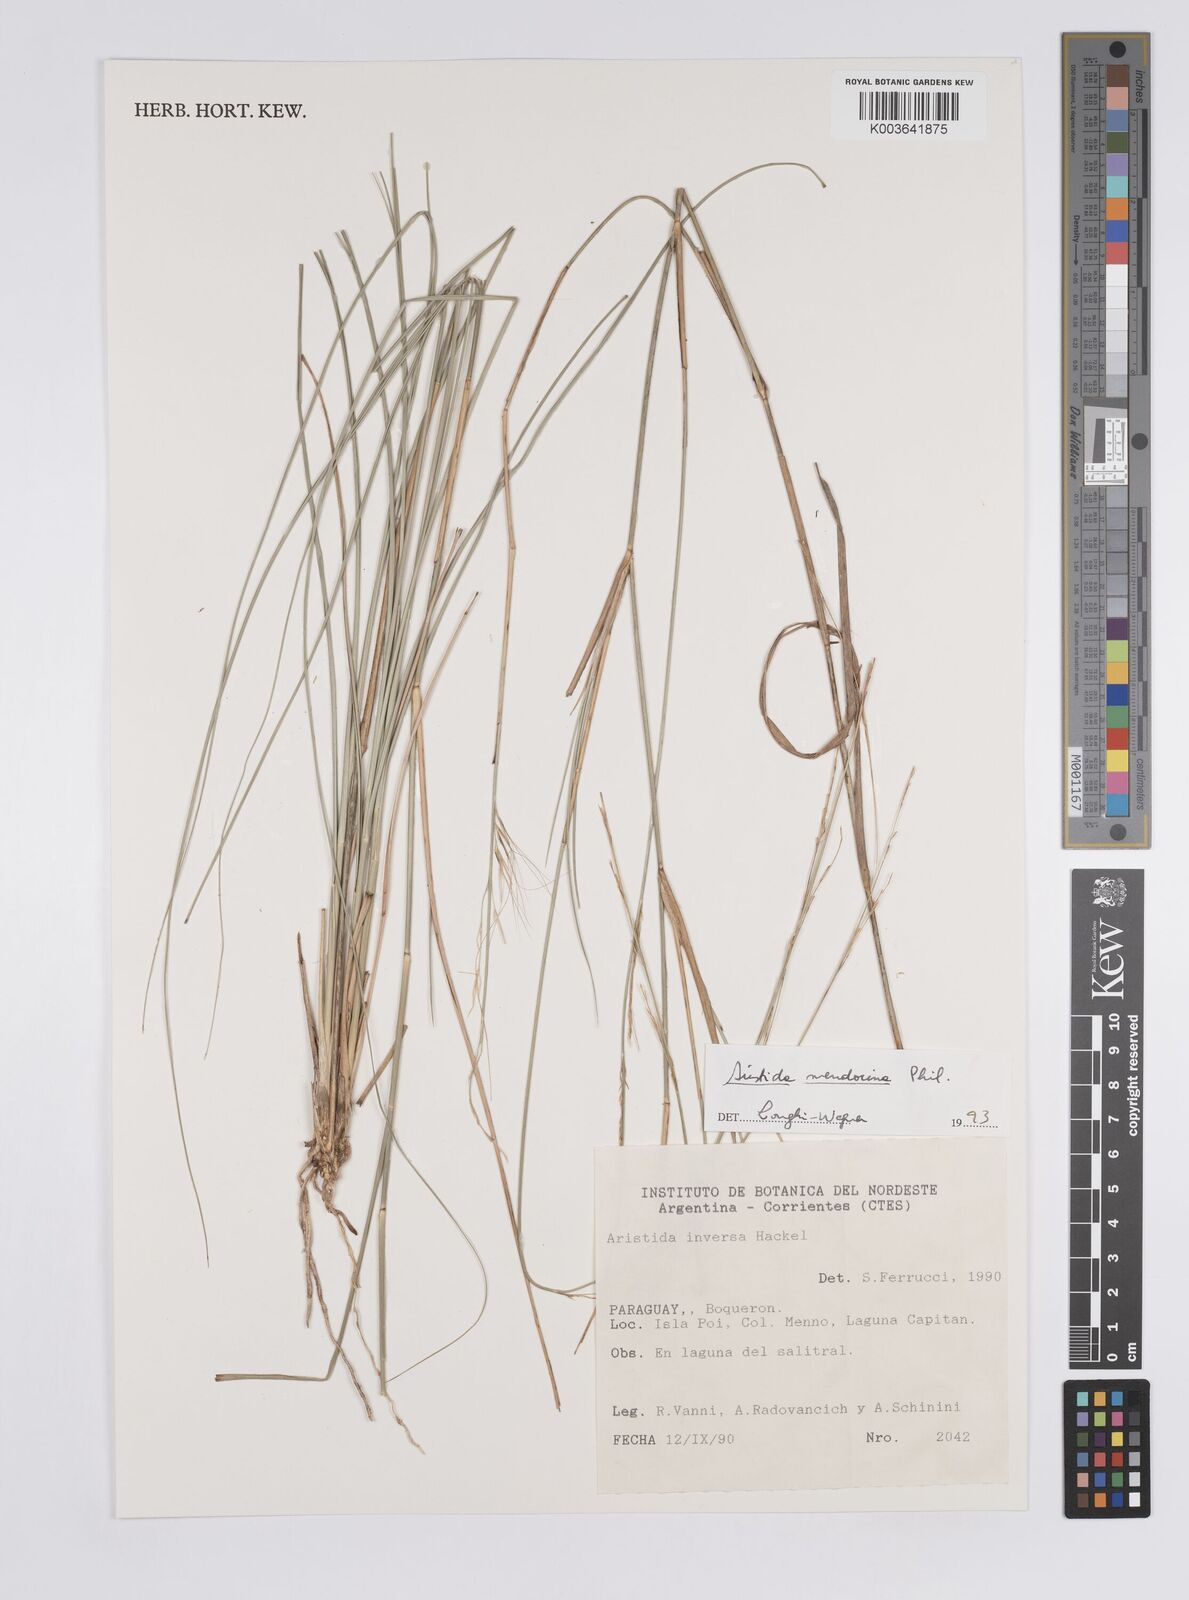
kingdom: Plantae
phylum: Tracheophyta
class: Liliopsida
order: Poales
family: Poaceae
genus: Aristida
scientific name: Aristida mendocina
